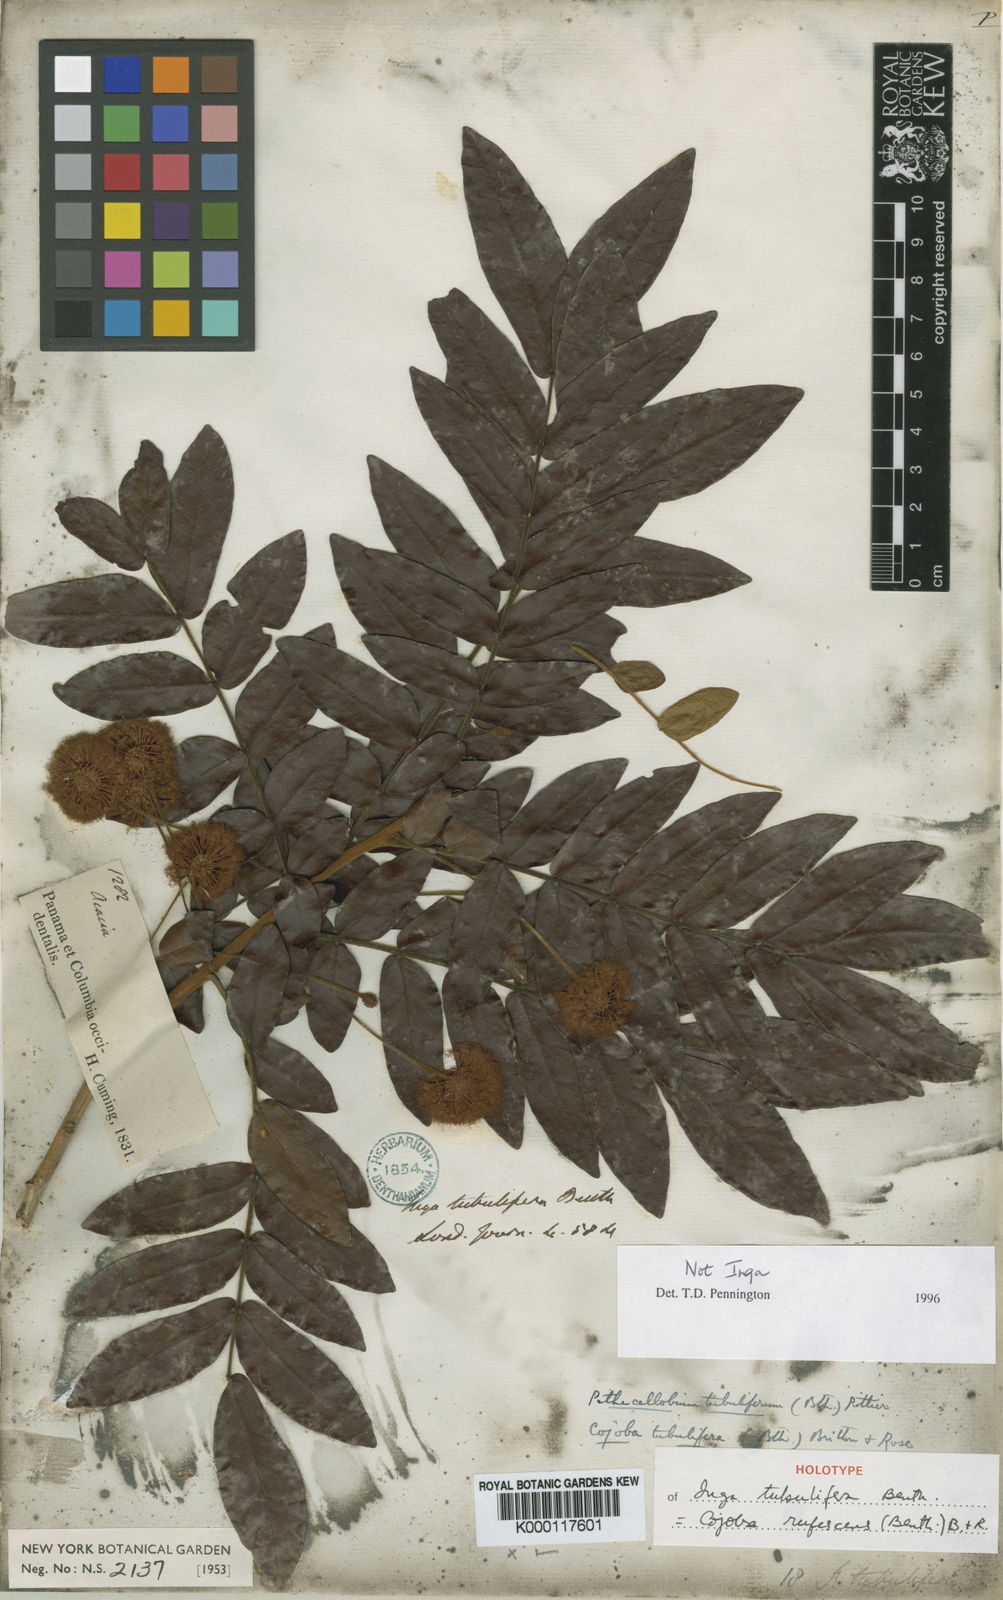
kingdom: Plantae
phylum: Tracheophyta
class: Magnoliopsida
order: Fabales
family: Fabaceae
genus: Cojoba
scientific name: Cojoba rufescens
